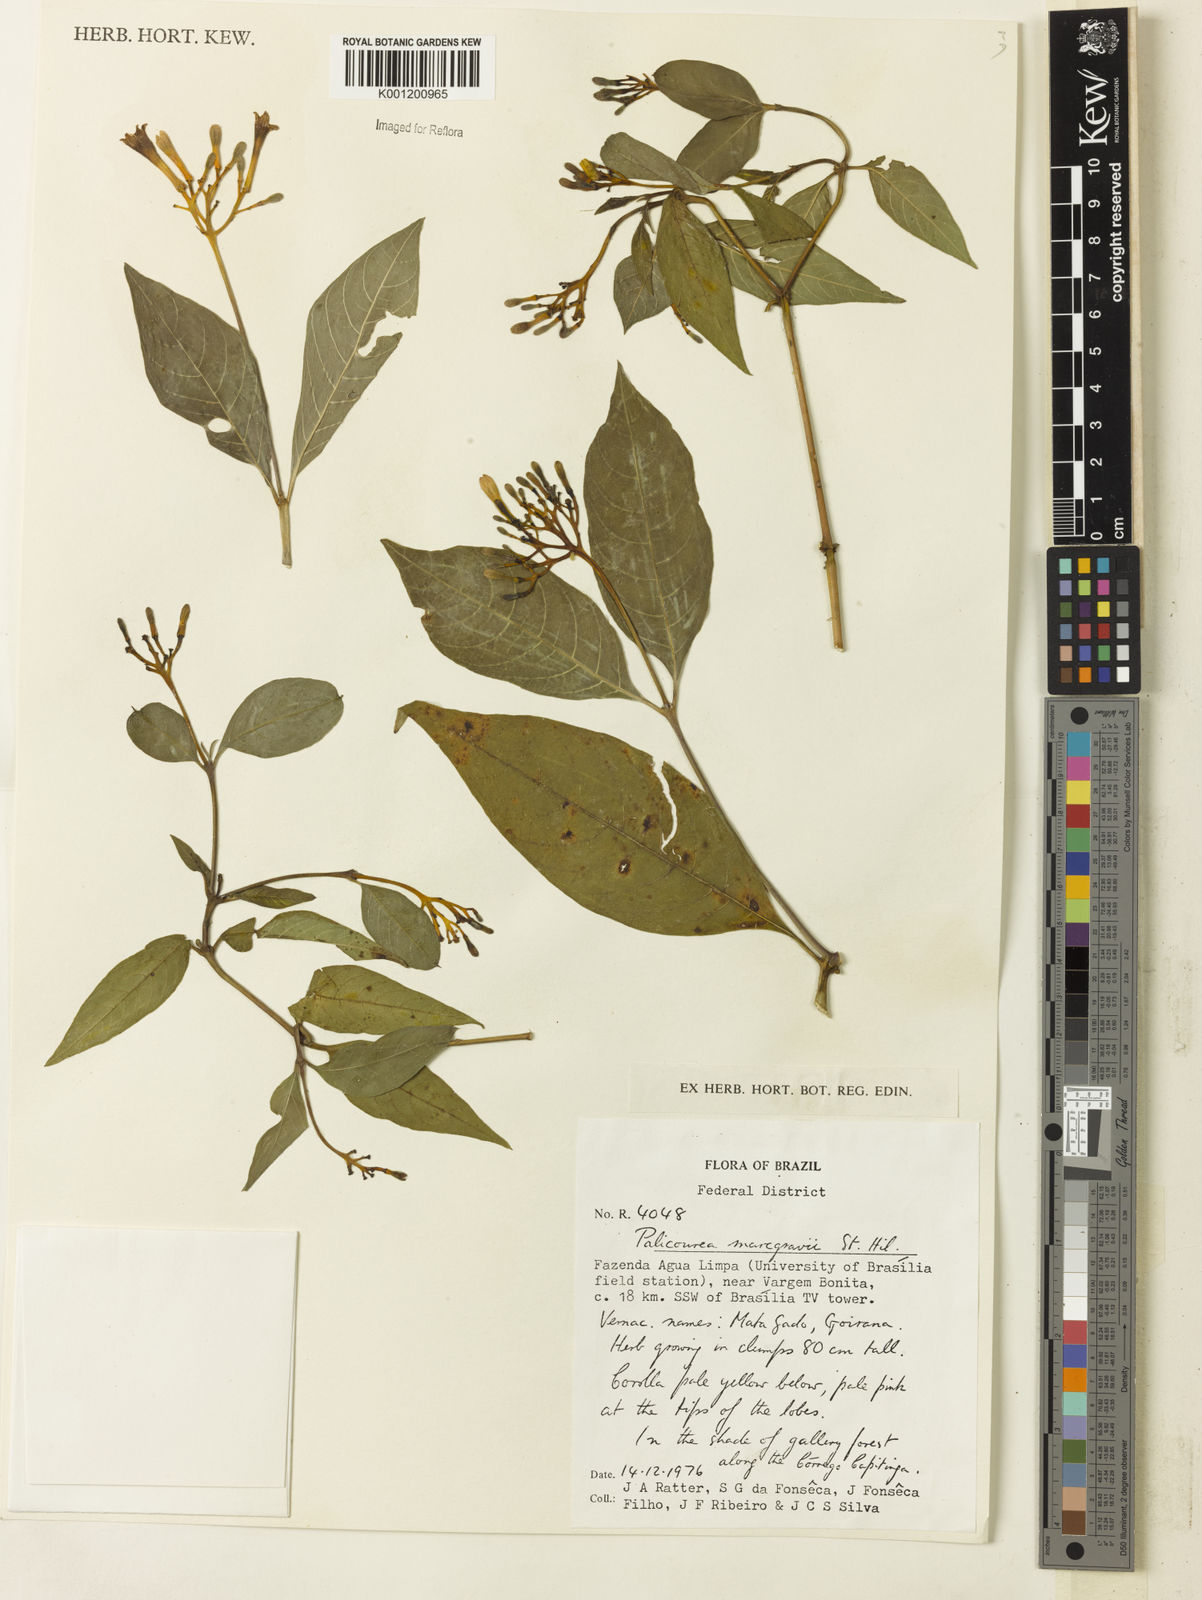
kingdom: Plantae
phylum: Tracheophyta
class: Magnoliopsida
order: Gentianales
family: Rubiaceae
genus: Palicourea
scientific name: Palicourea marcgravii
